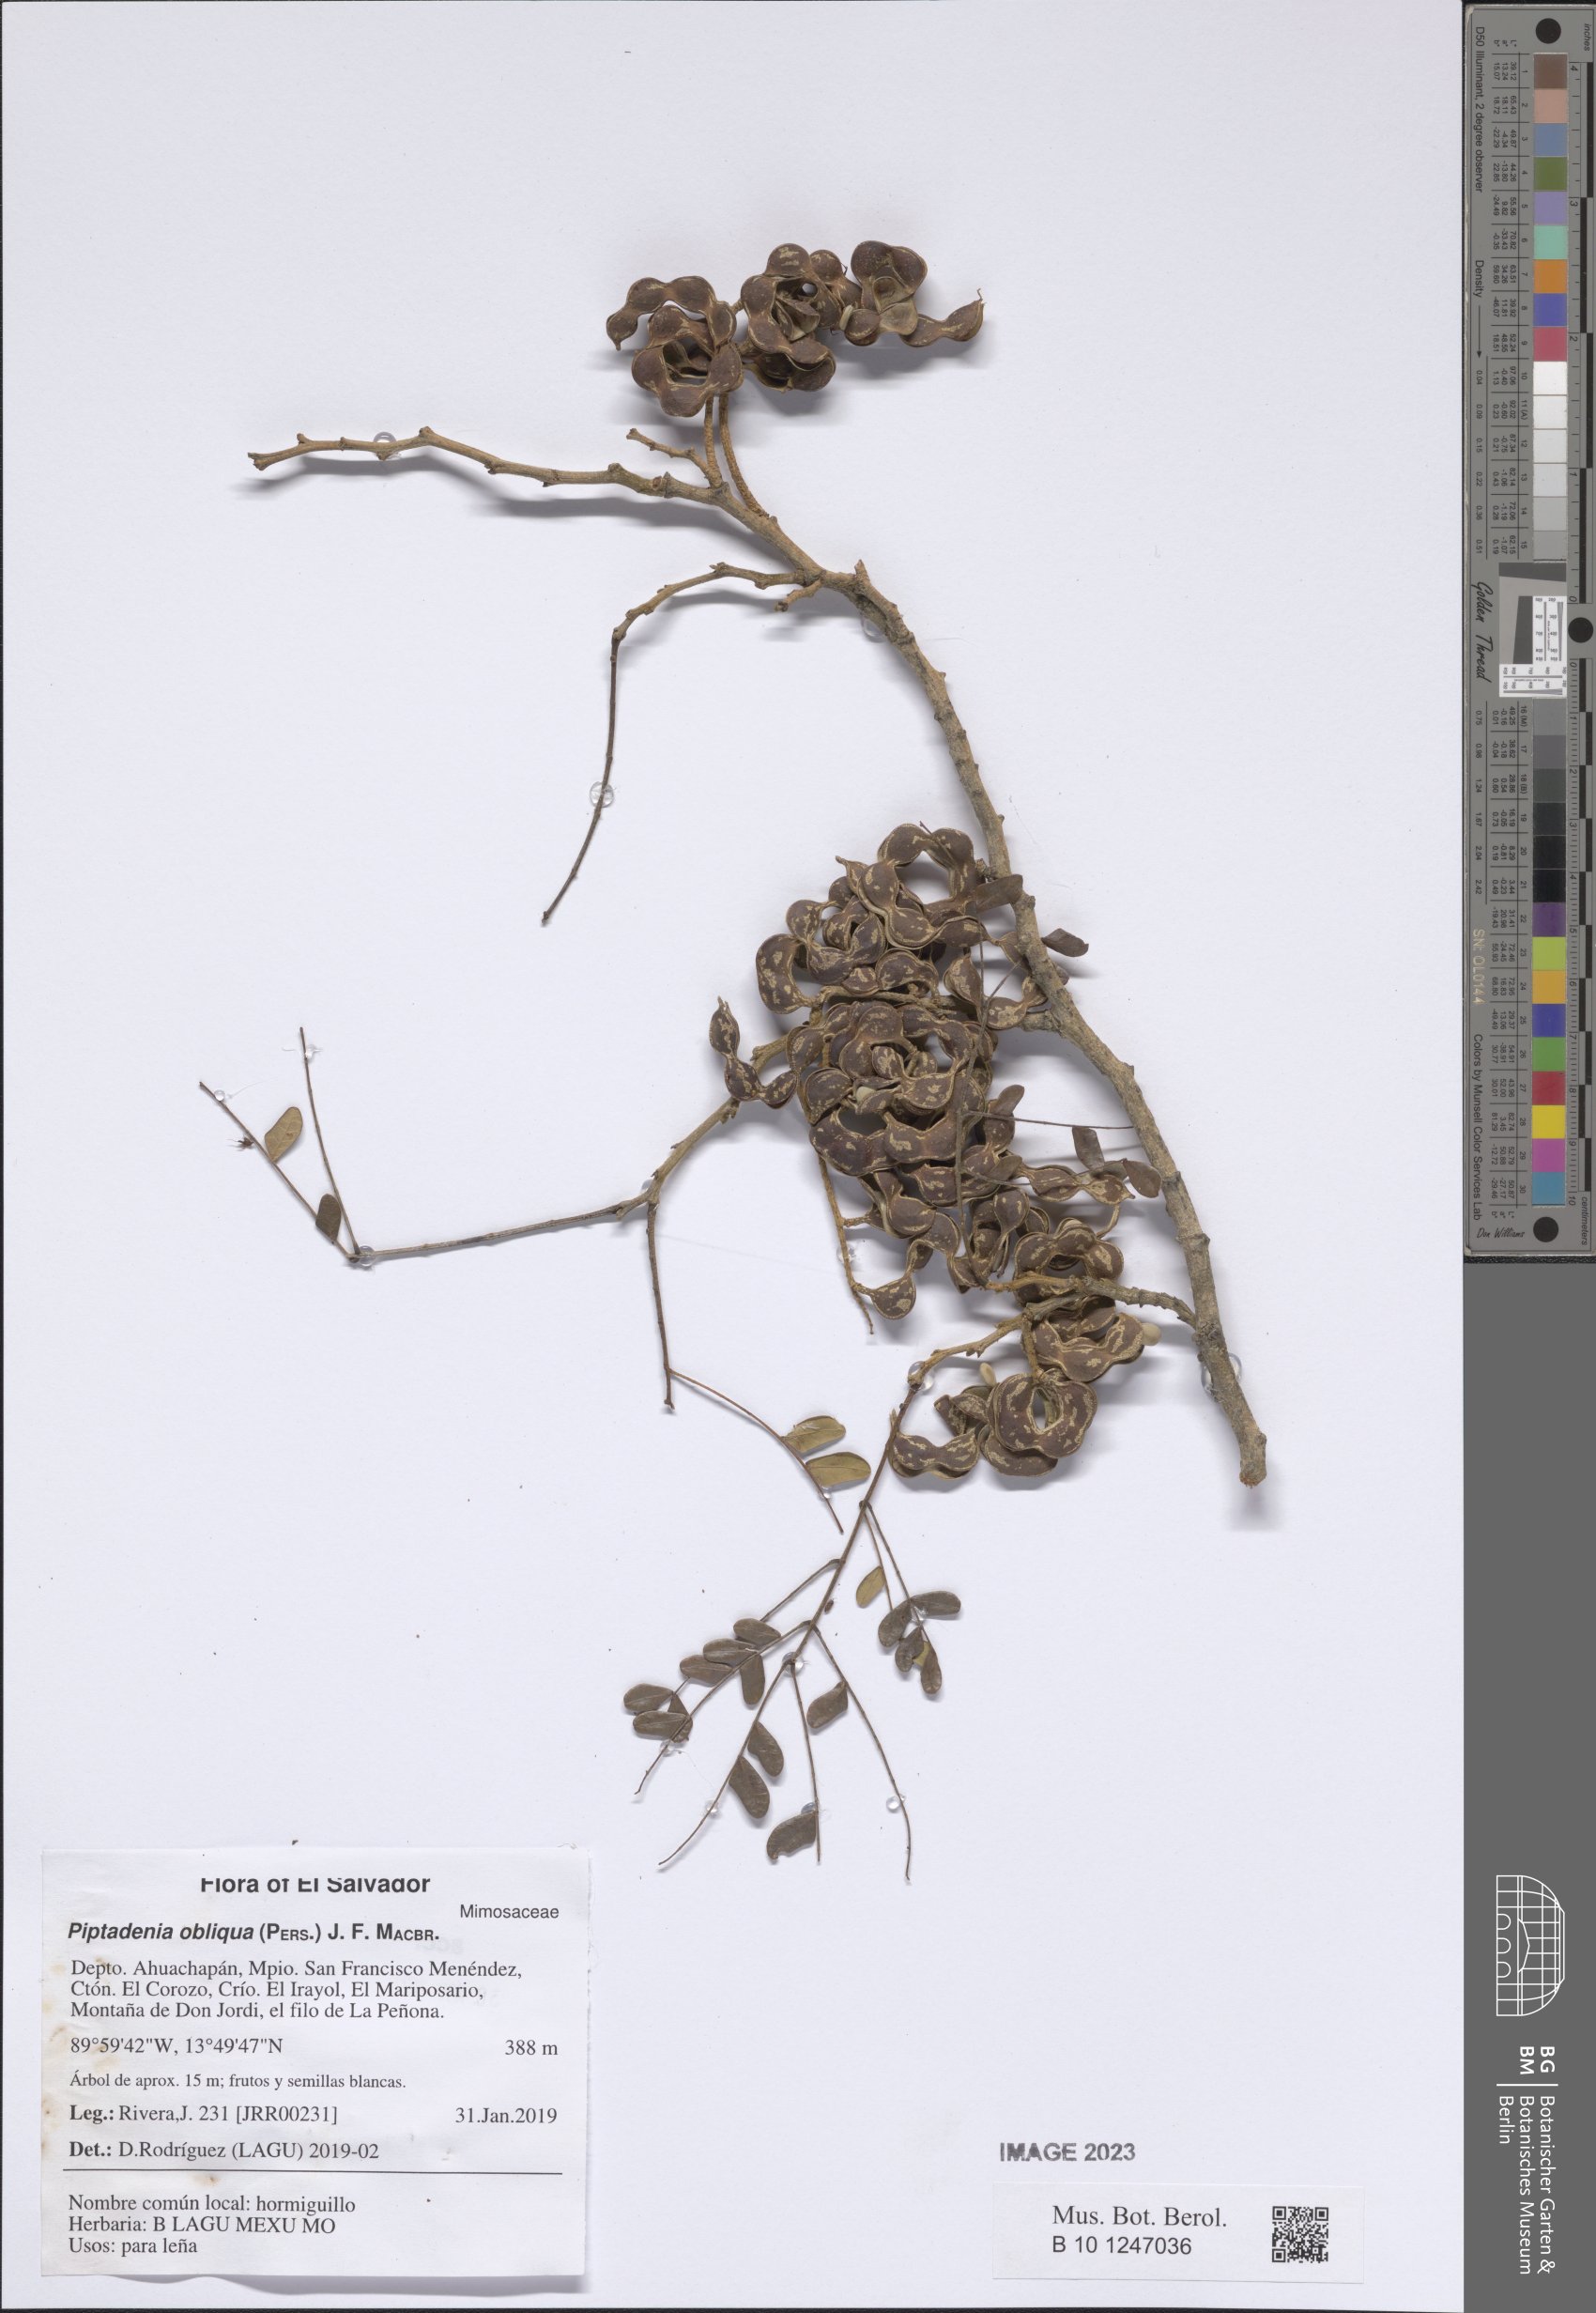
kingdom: Plantae
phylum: Tracheophyta
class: Magnoliopsida
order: Fabales
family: Fabaceae
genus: Pityrocarpa
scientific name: Pityrocarpa obliqua
